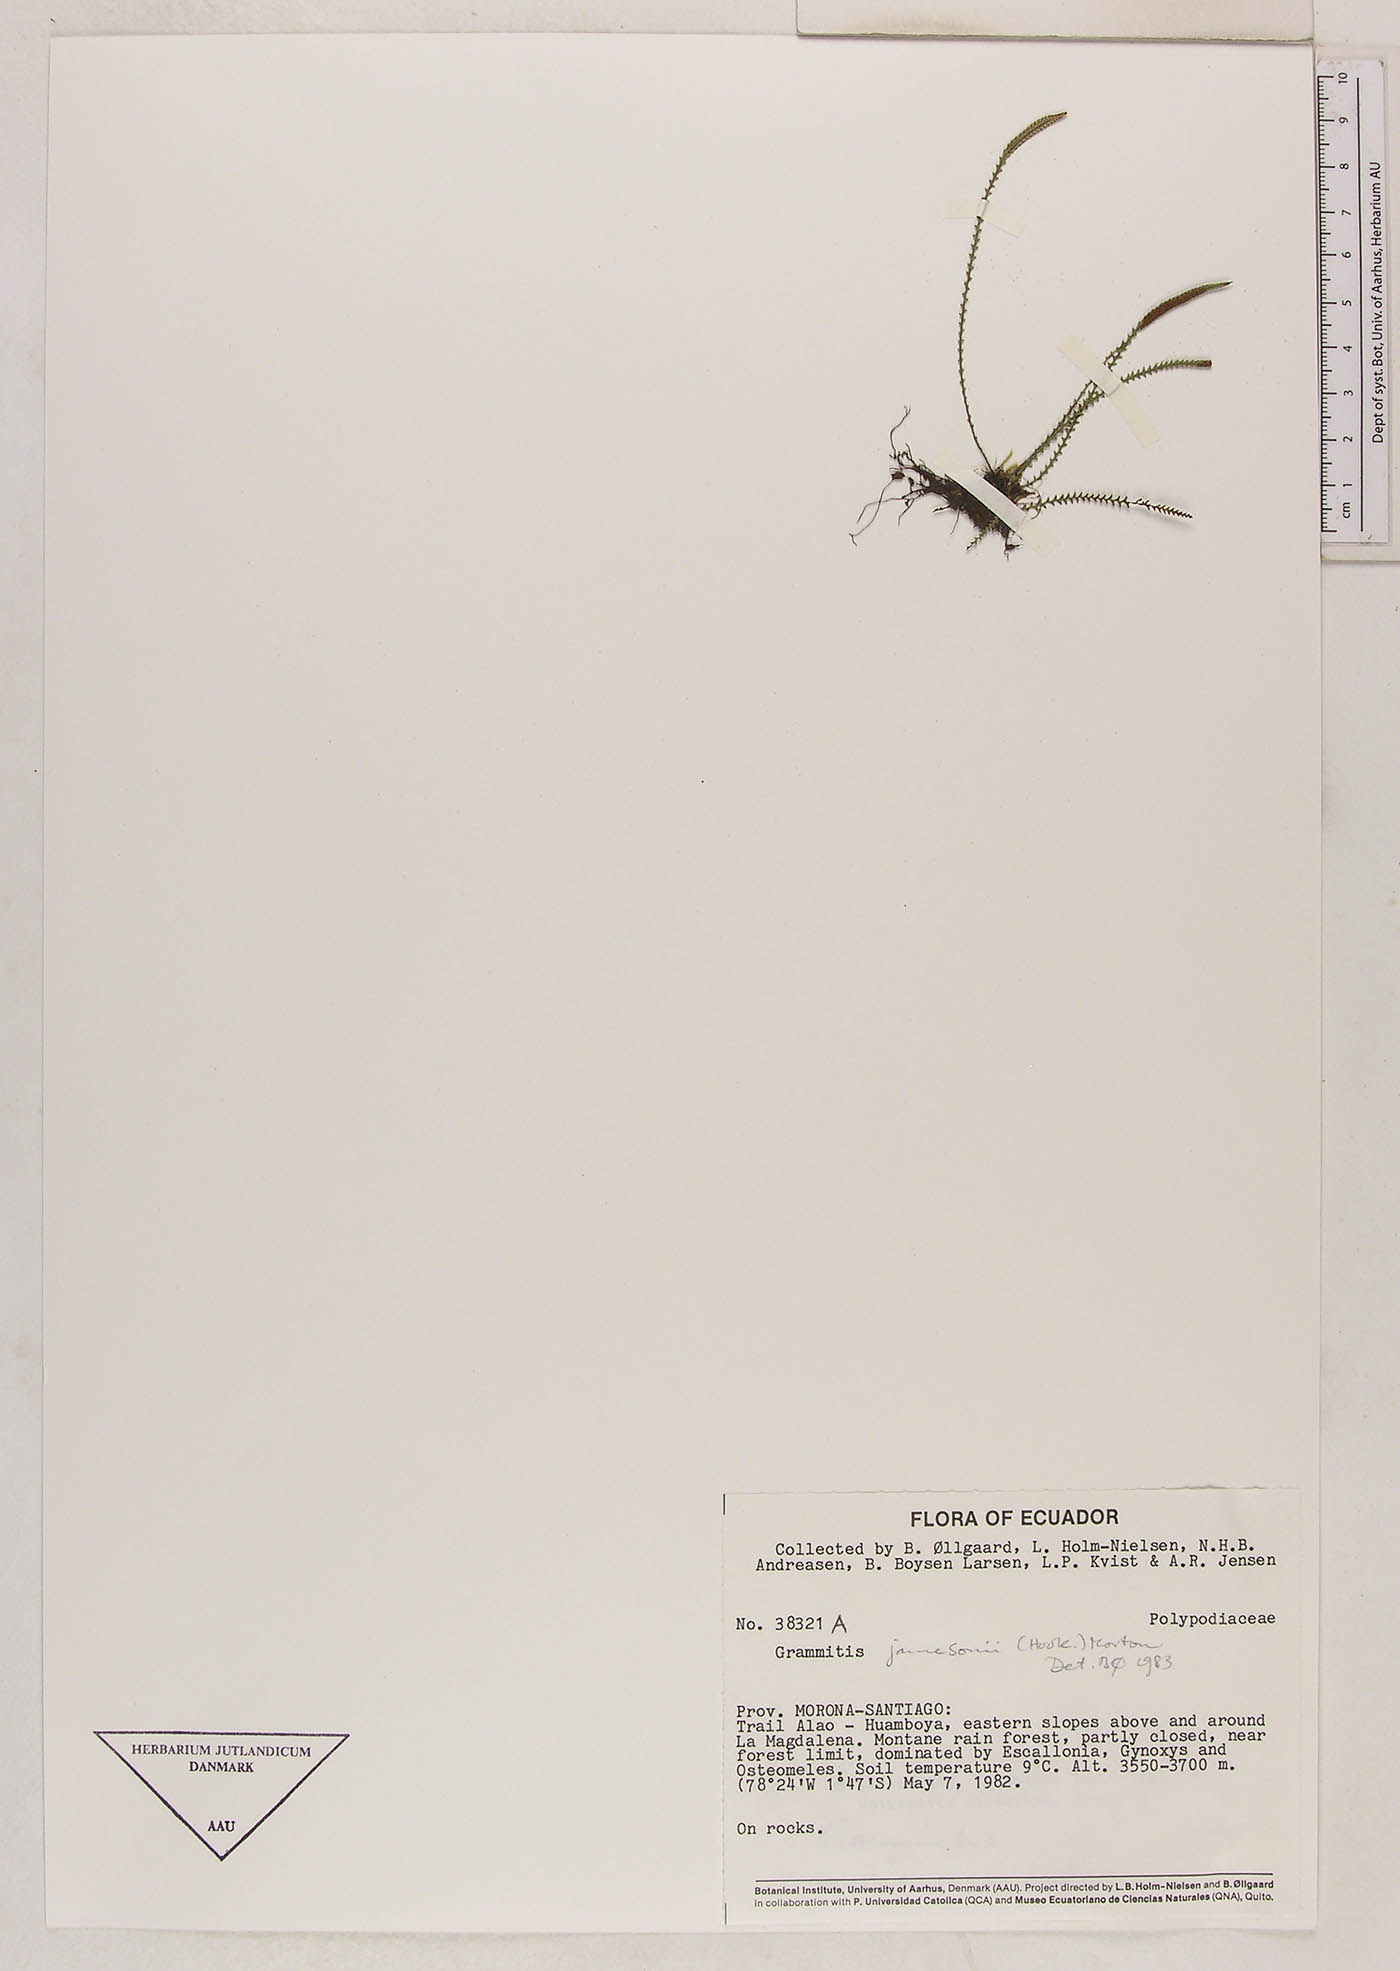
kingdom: Plantae
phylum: Tracheophyta
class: Polypodiopsida
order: Polypodiales
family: Polypodiaceae
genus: Stenogrammitis
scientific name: Stenogrammitis jamesonii
